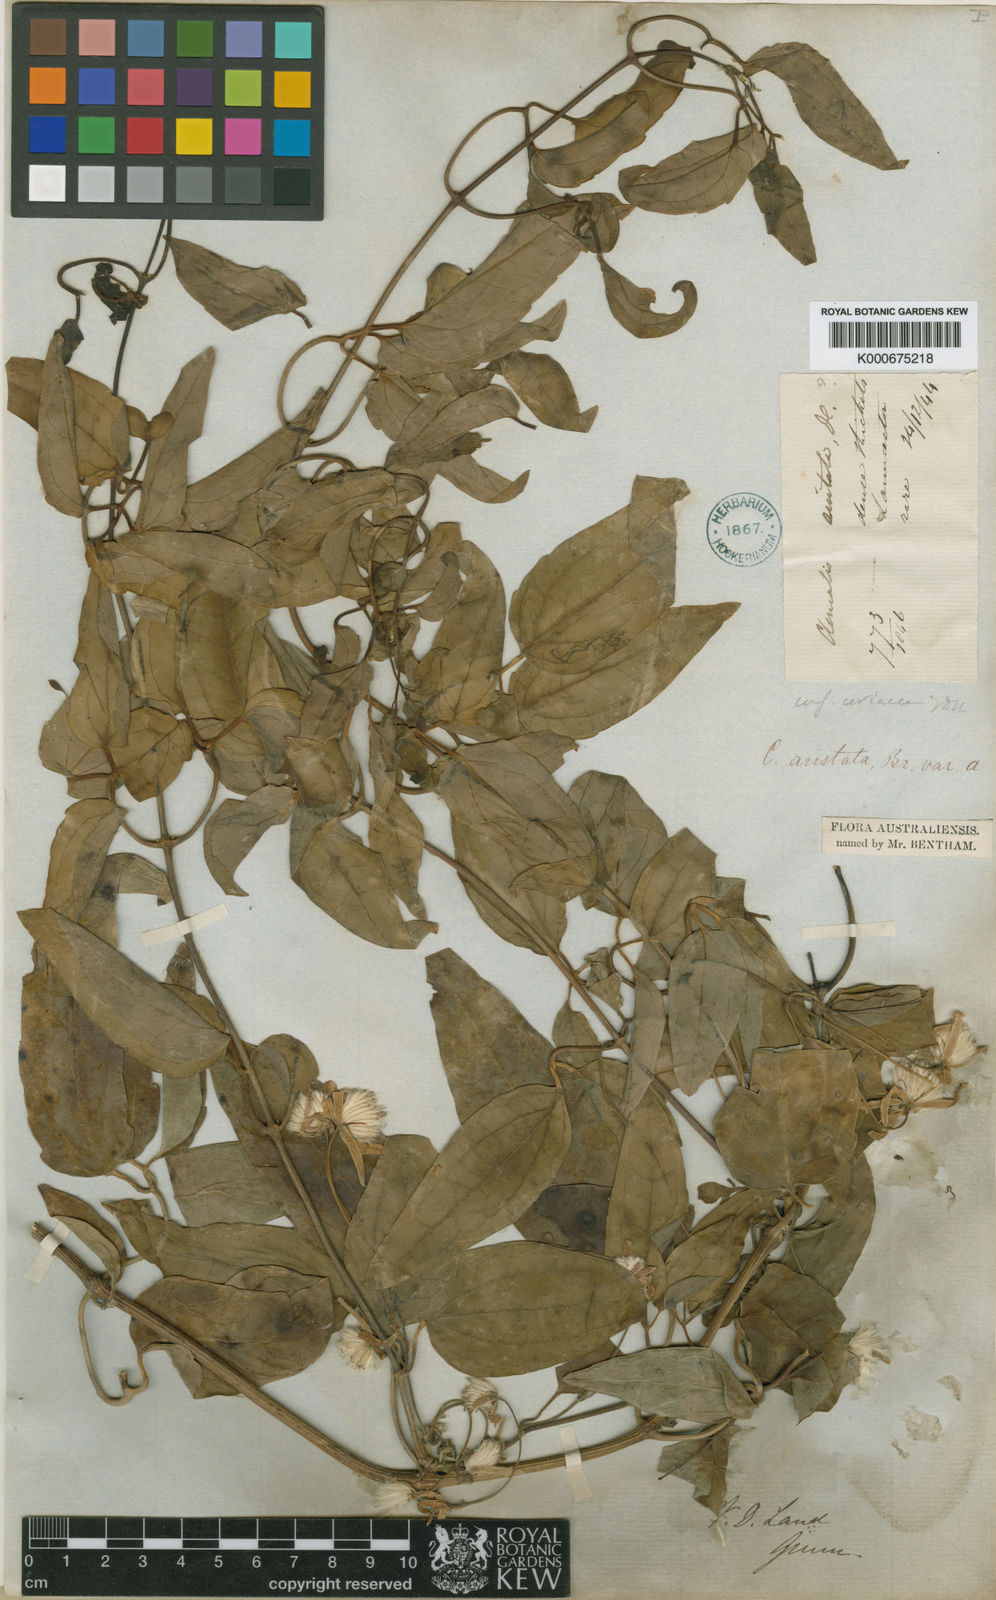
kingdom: Plantae
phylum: Tracheophyta
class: Magnoliopsida
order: Ranunculales
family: Ranunculaceae
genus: Clematis
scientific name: Clematis clitorioides
